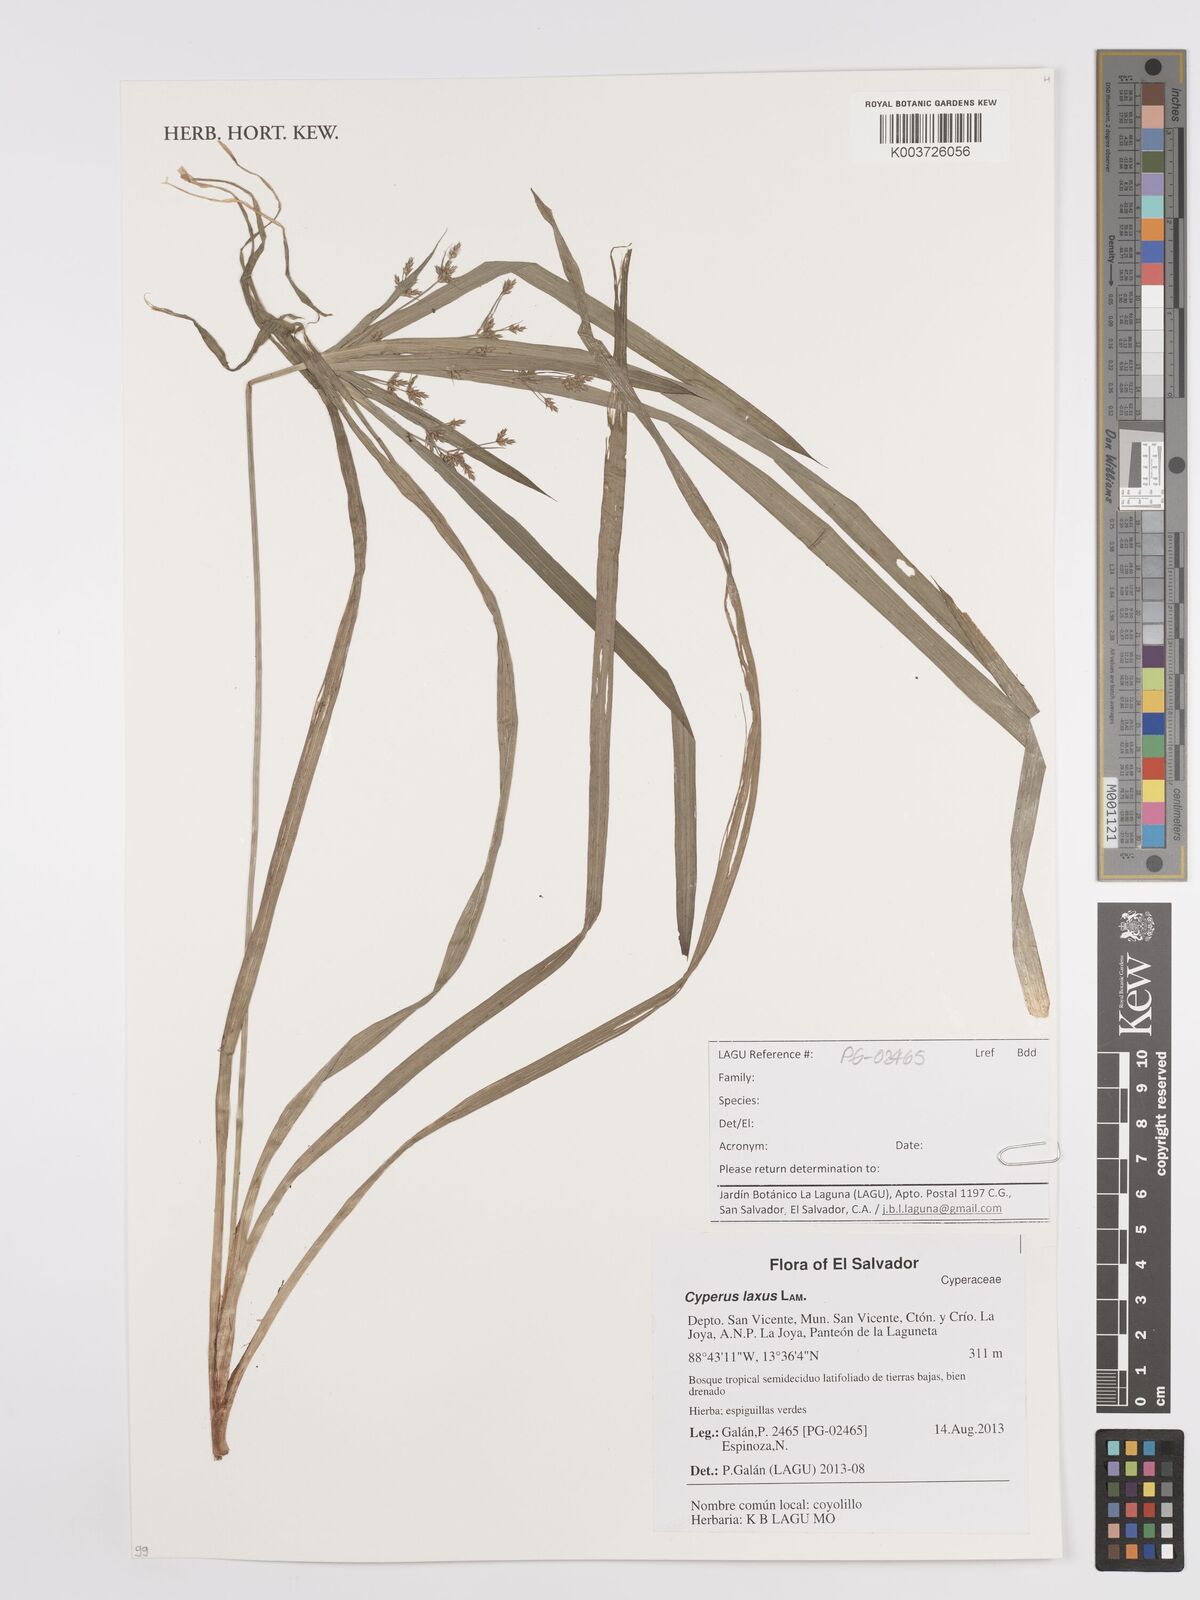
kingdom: Plantae
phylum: Tracheophyta
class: Liliopsida
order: Poales
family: Cyperaceae
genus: Cyperus
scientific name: Cyperus laxus
